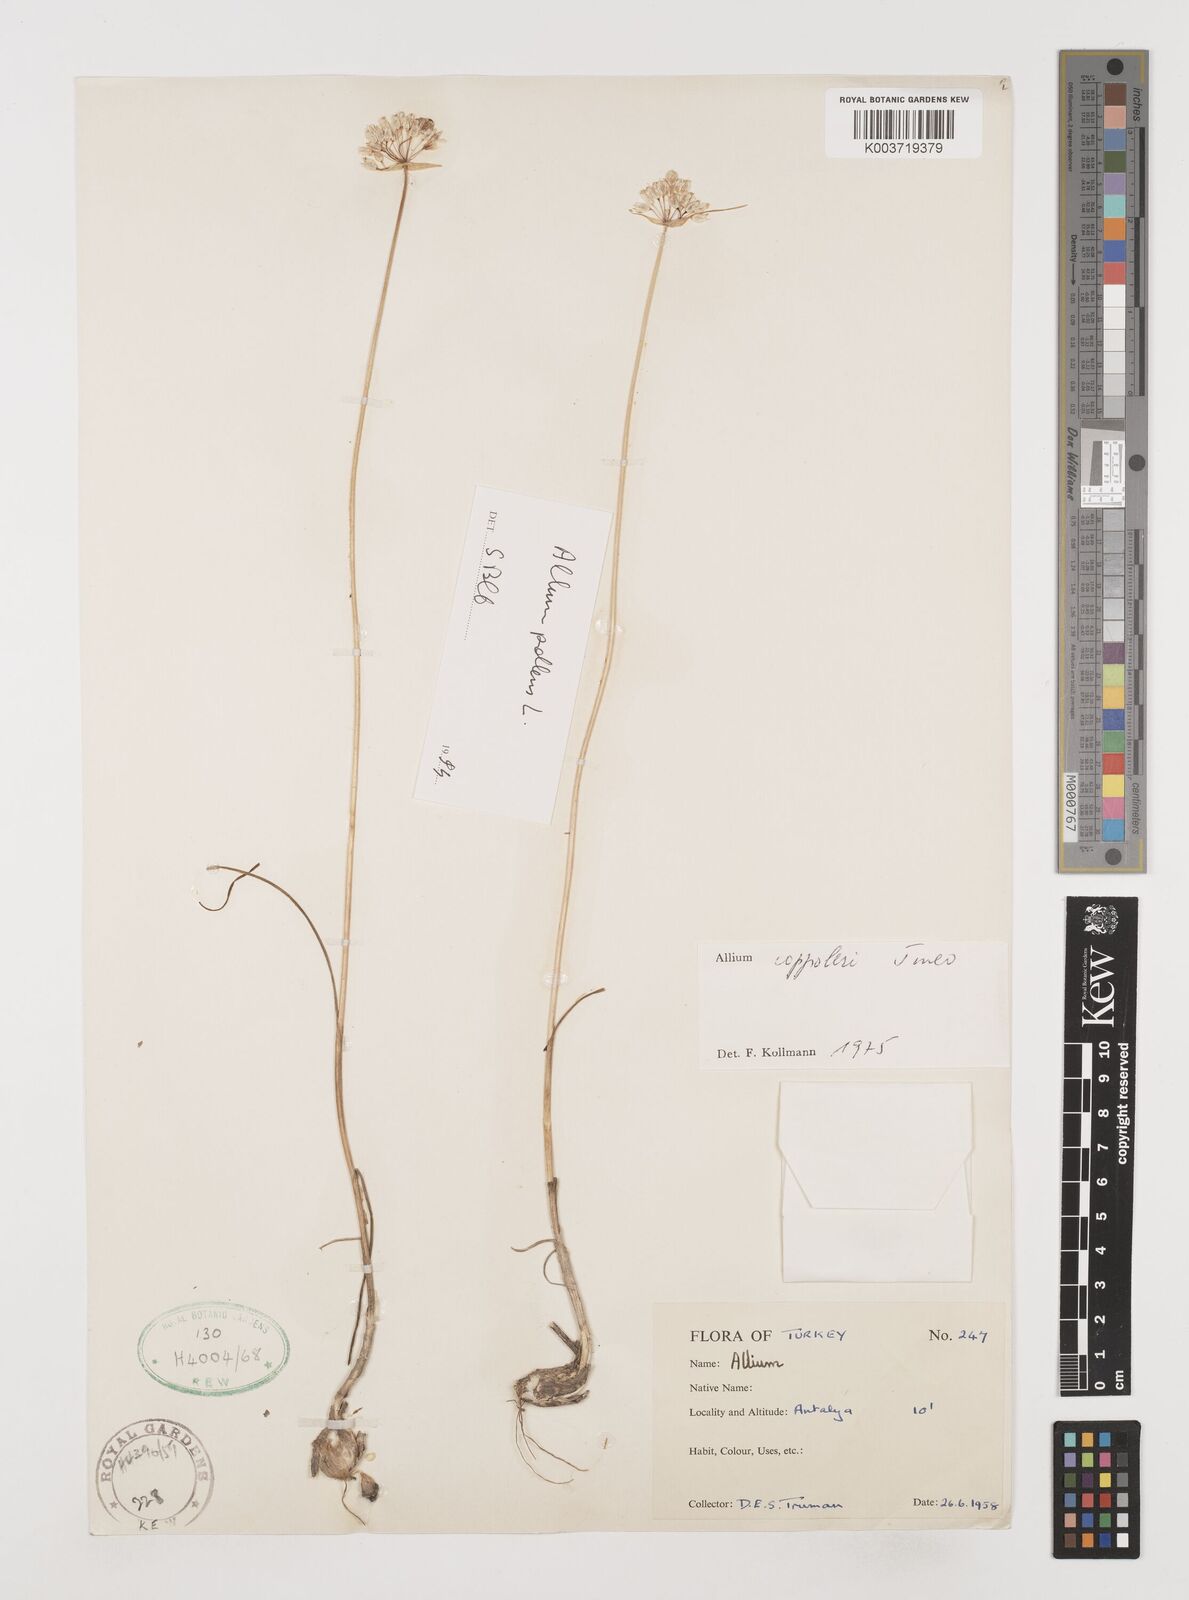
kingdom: Plantae
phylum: Tracheophyta
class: Liliopsida
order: Asparagales
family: Amaryllidaceae
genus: Allium
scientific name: Allium coppoleri
